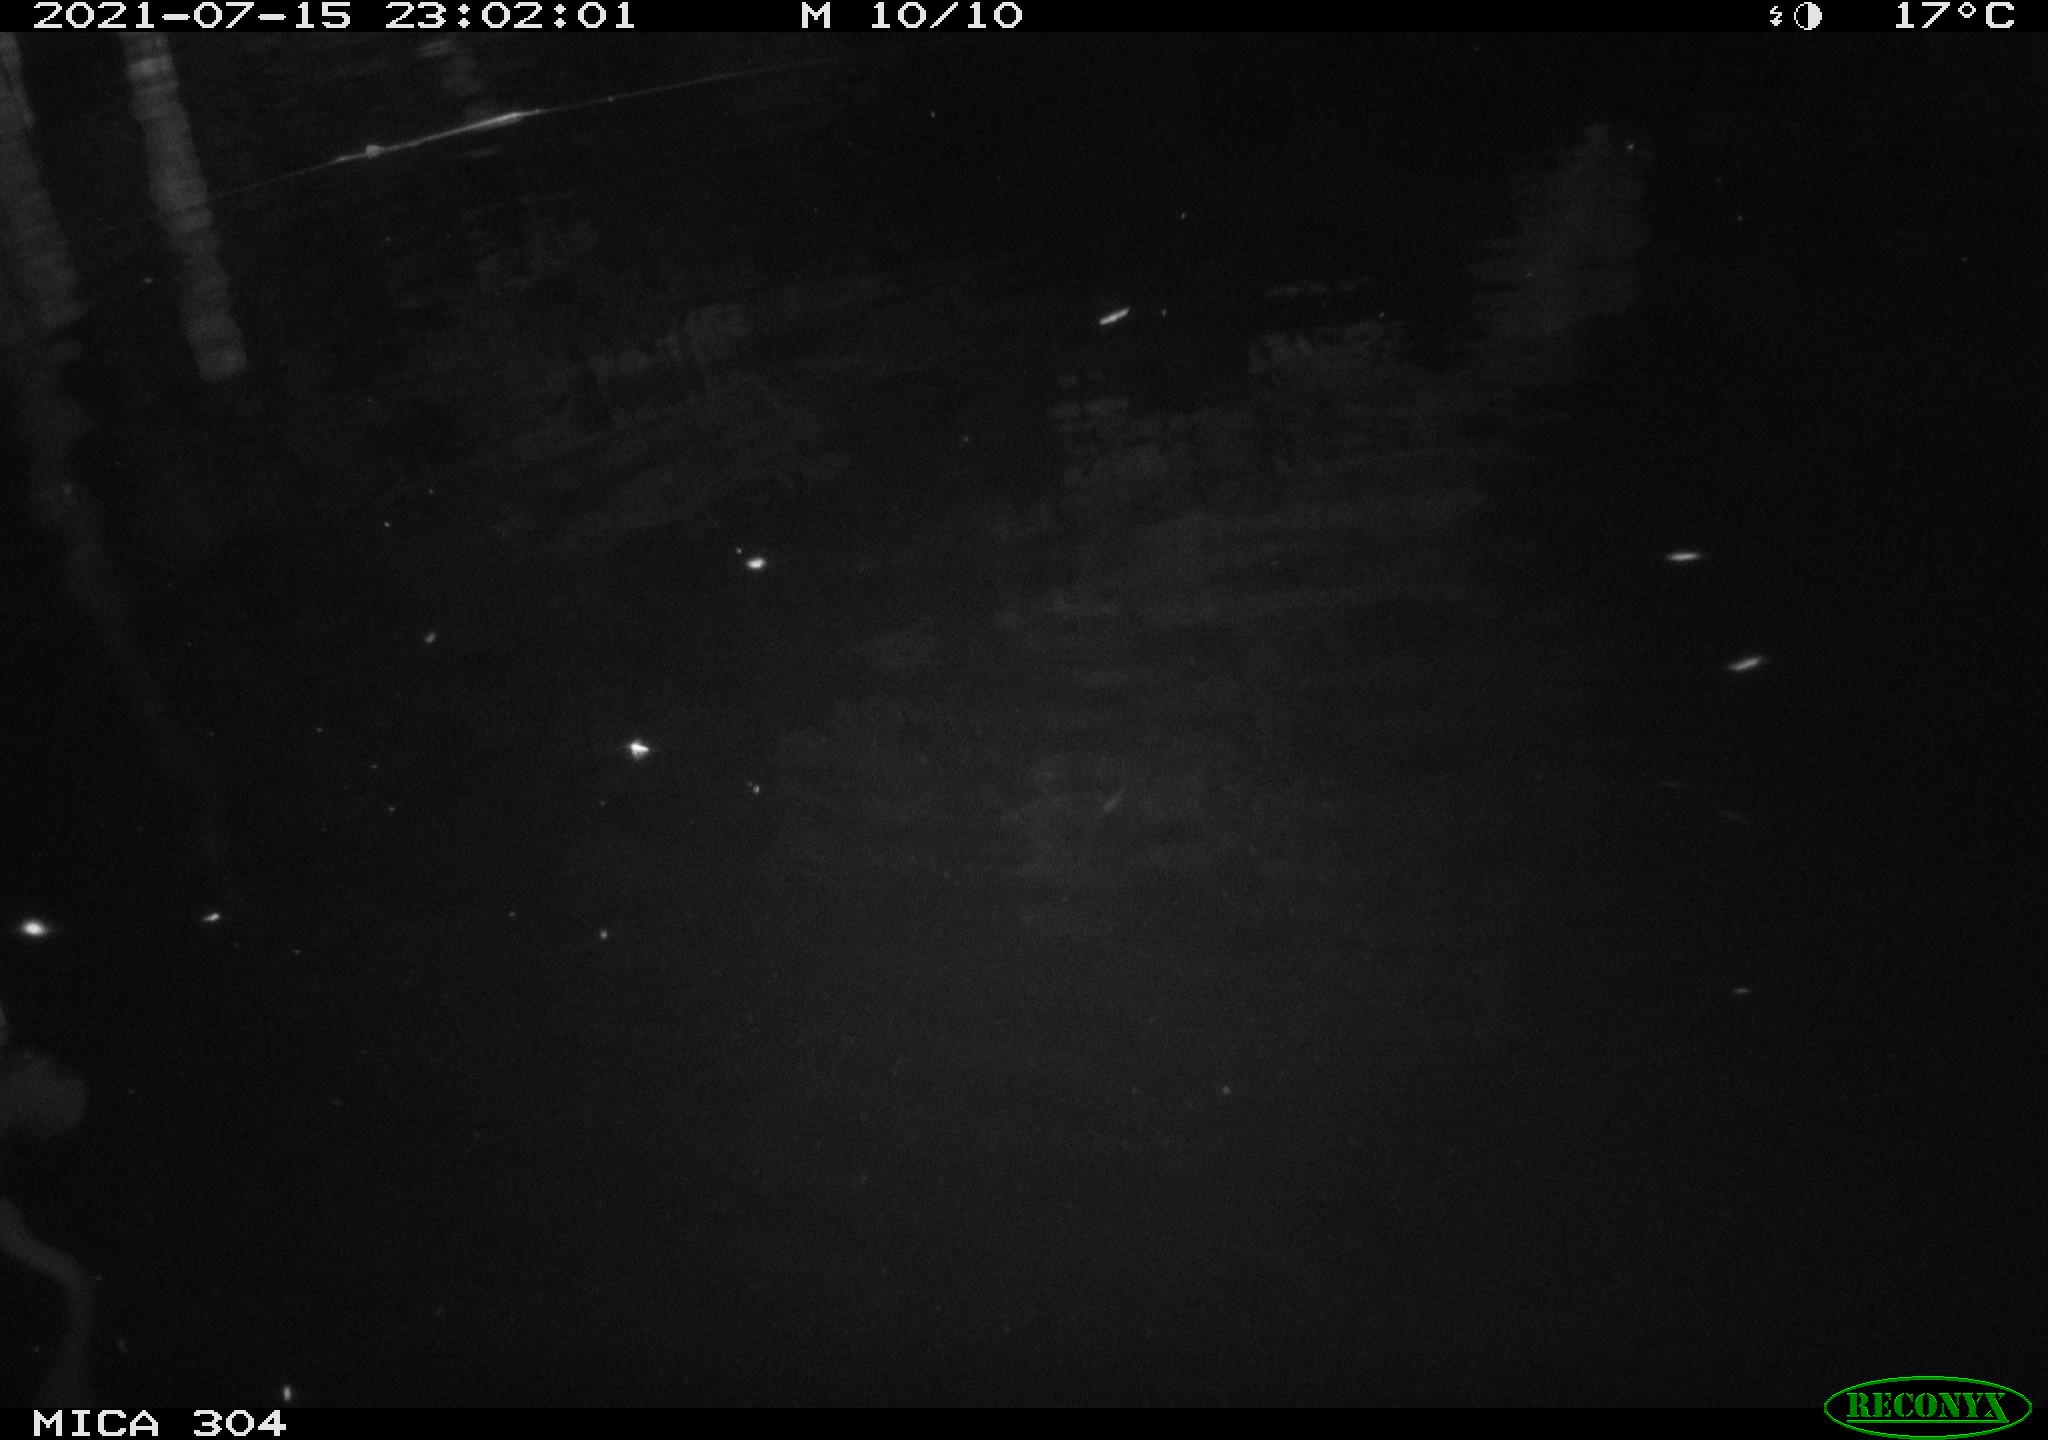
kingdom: Animalia
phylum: Chordata
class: Aves
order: Anseriformes
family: Anatidae
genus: Anas
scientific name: Anas platyrhynchos
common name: Mallard
